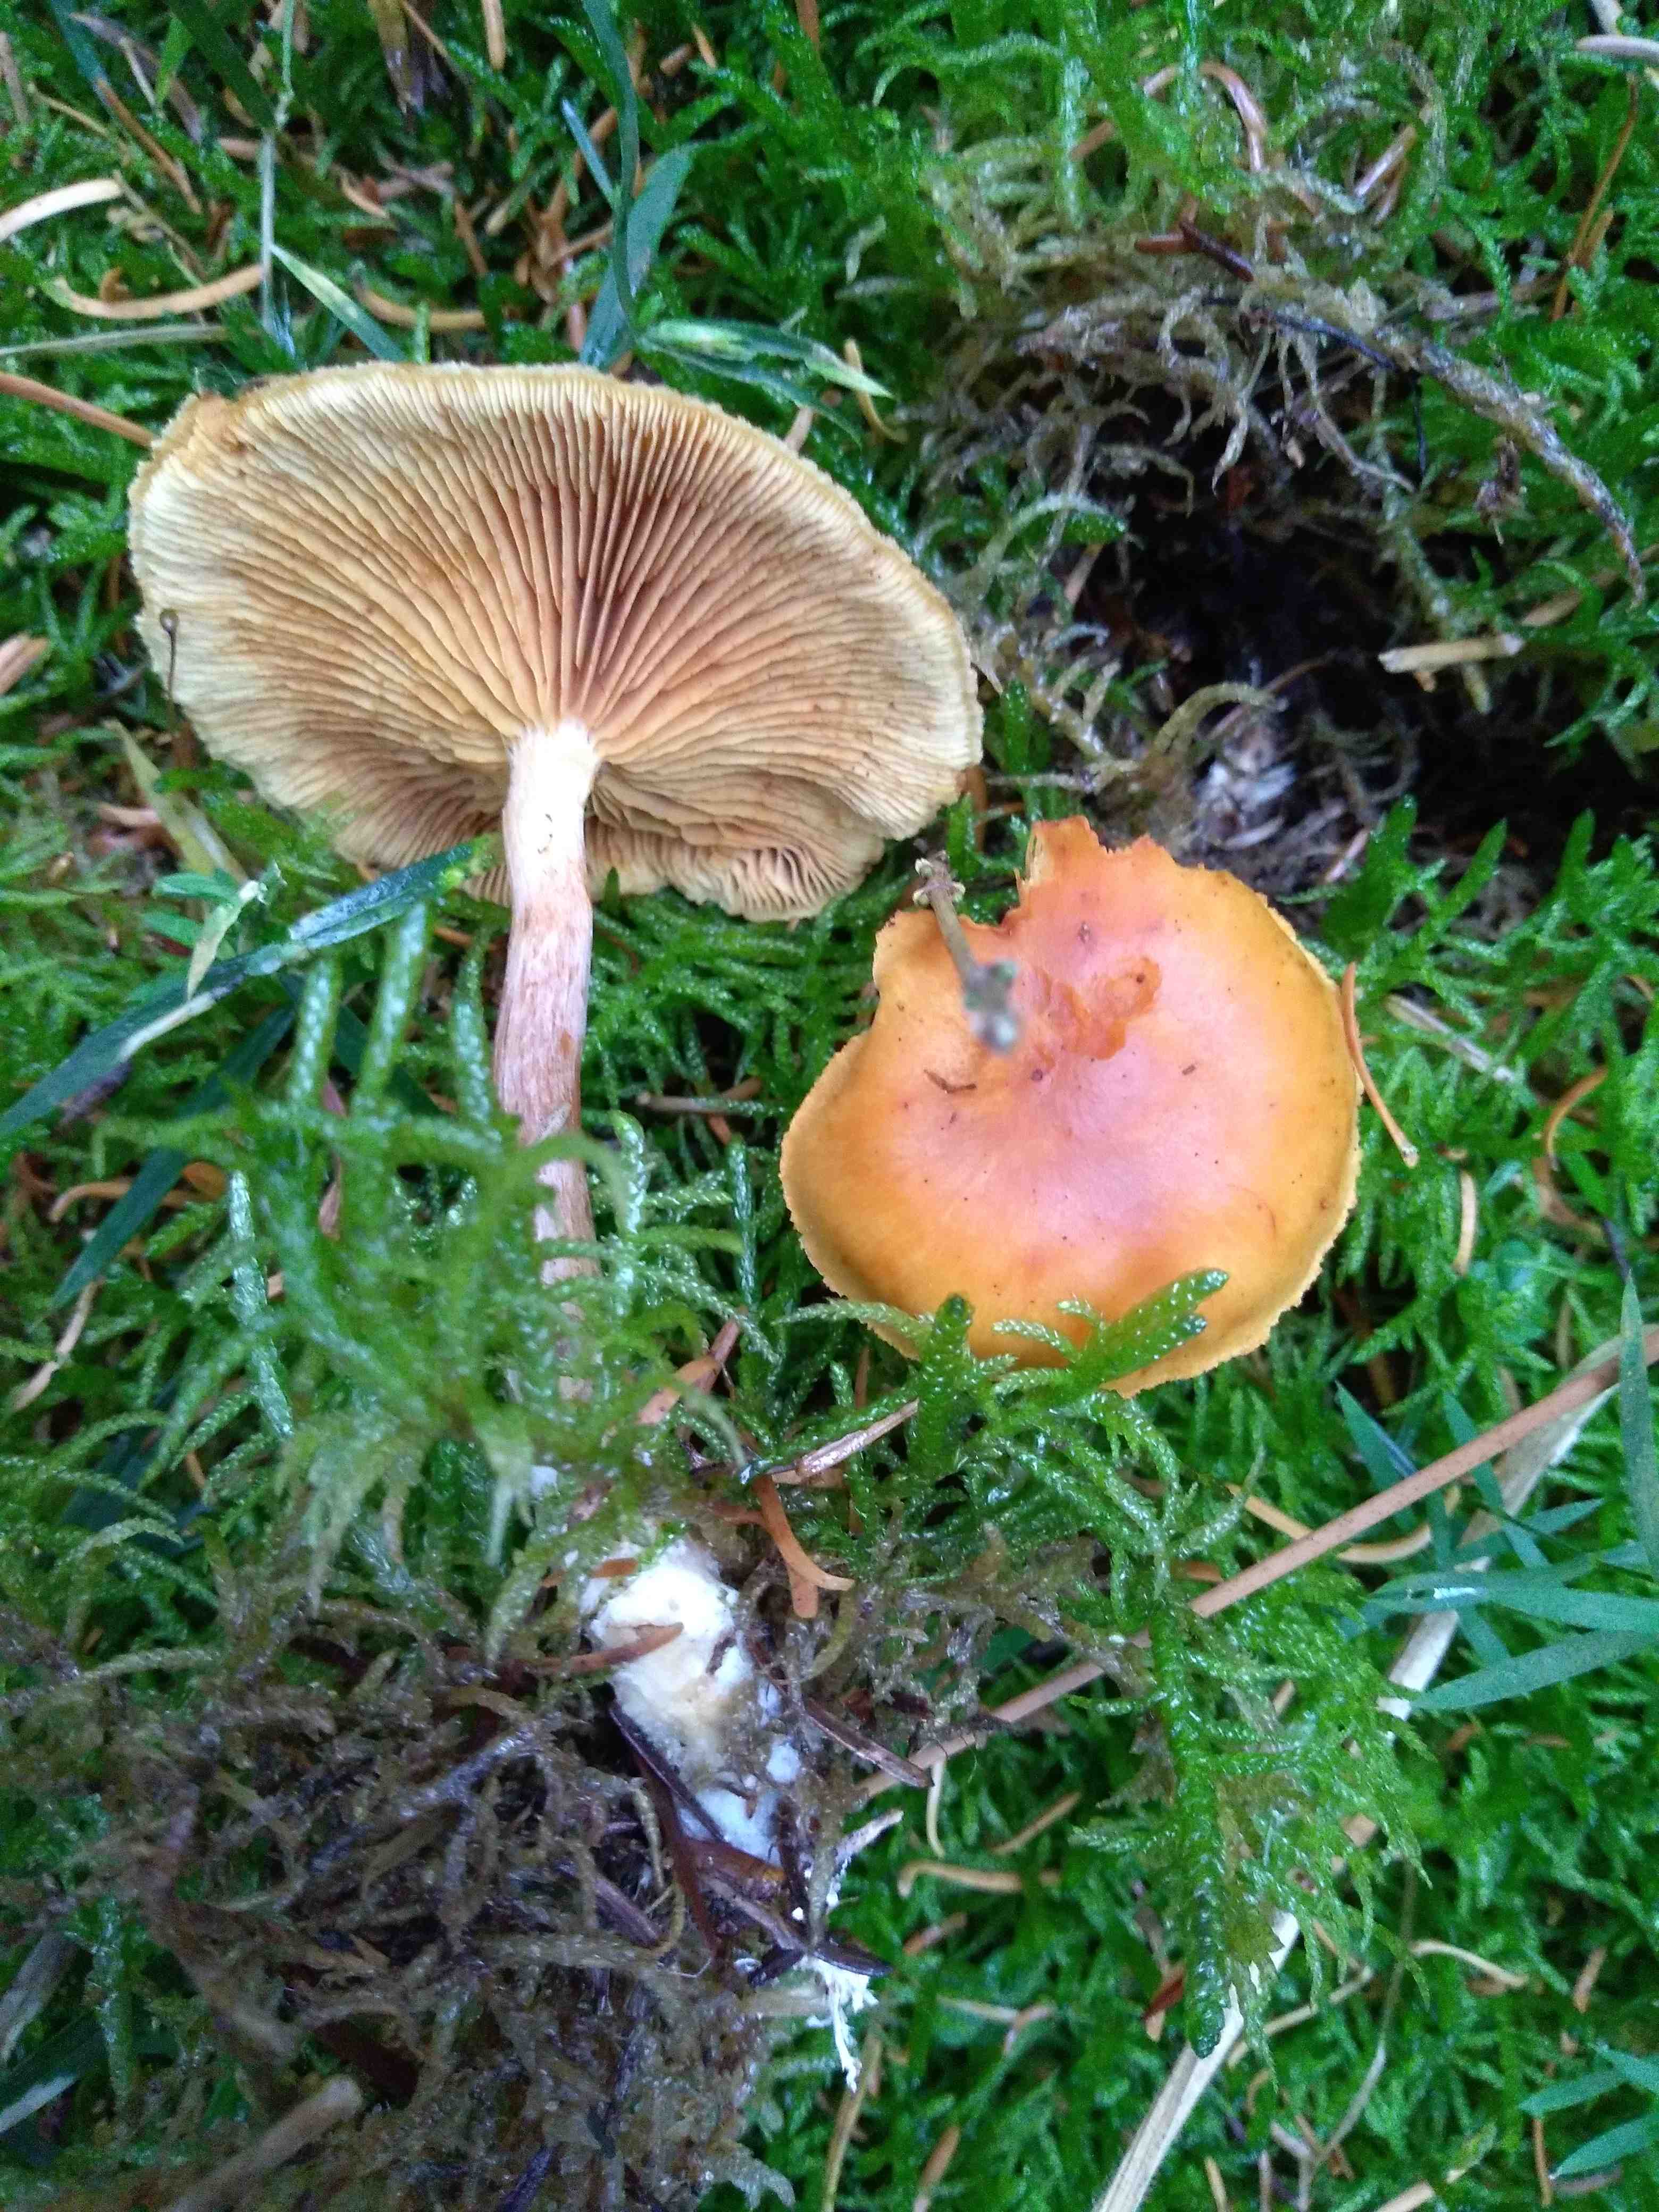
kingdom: Fungi
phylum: Basidiomycota
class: Agaricomycetes
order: Agaricales
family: Hymenogastraceae
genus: Gymnopilus
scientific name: Gymnopilus penetrans
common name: plettet flammehat
